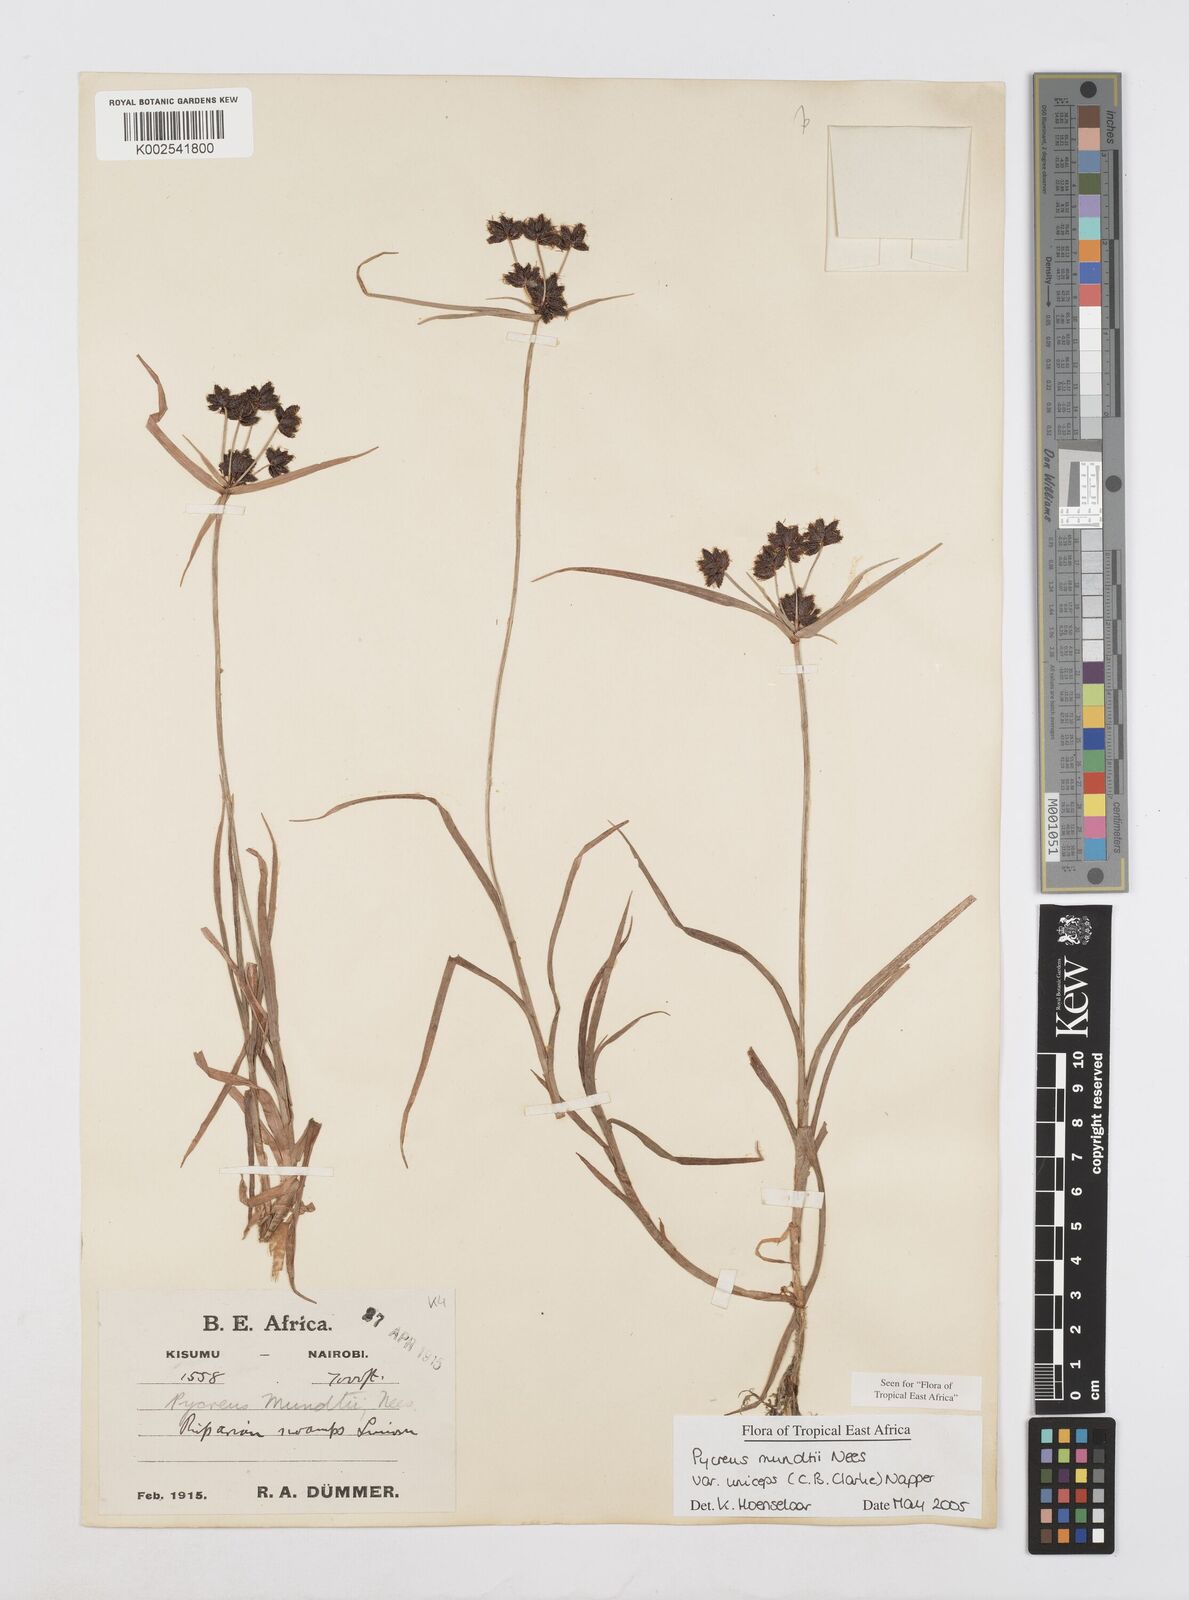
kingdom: Plantae
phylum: Tracheophyta
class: Liliopsida
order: Poales
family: Cyperaceae
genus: Cyperus
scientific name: Cyperus mundii
